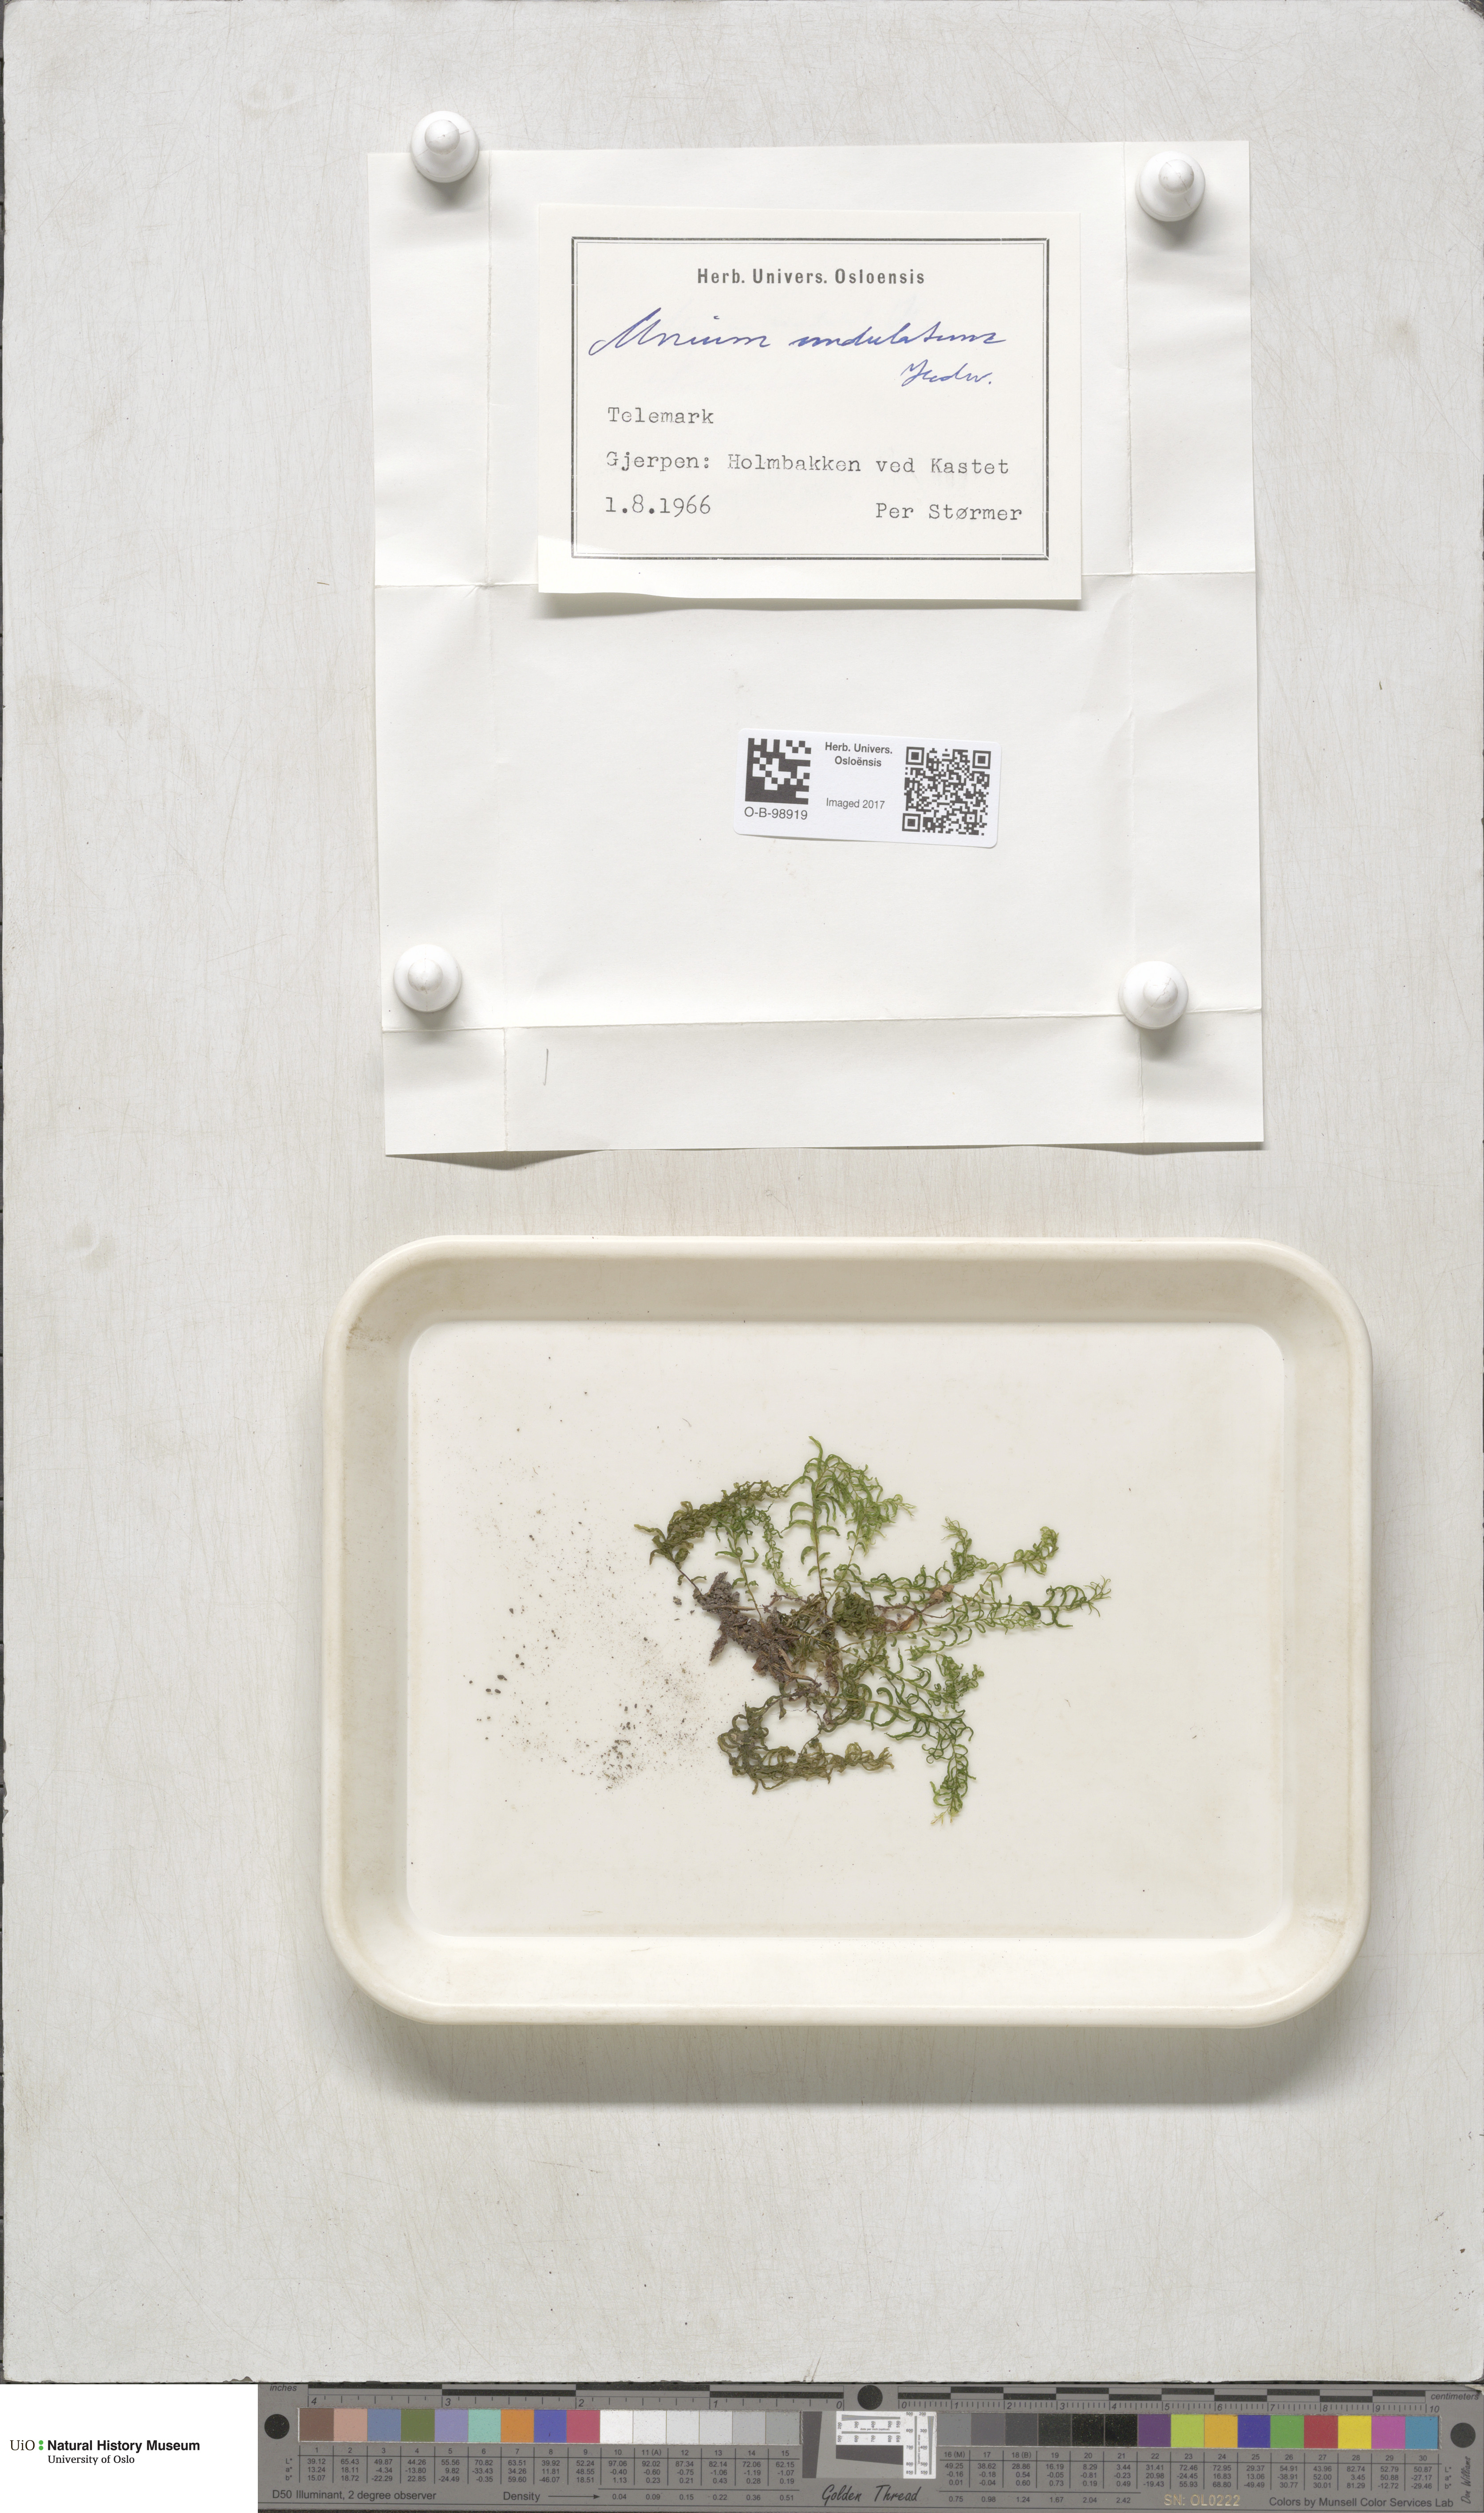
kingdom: Plantae
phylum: Bryophyta
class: Bryopsida
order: Bryales
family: Mniaceae
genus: Plagiomnium
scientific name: Plagiomnium undulatum
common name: Hart's-tongue thyme-moss
